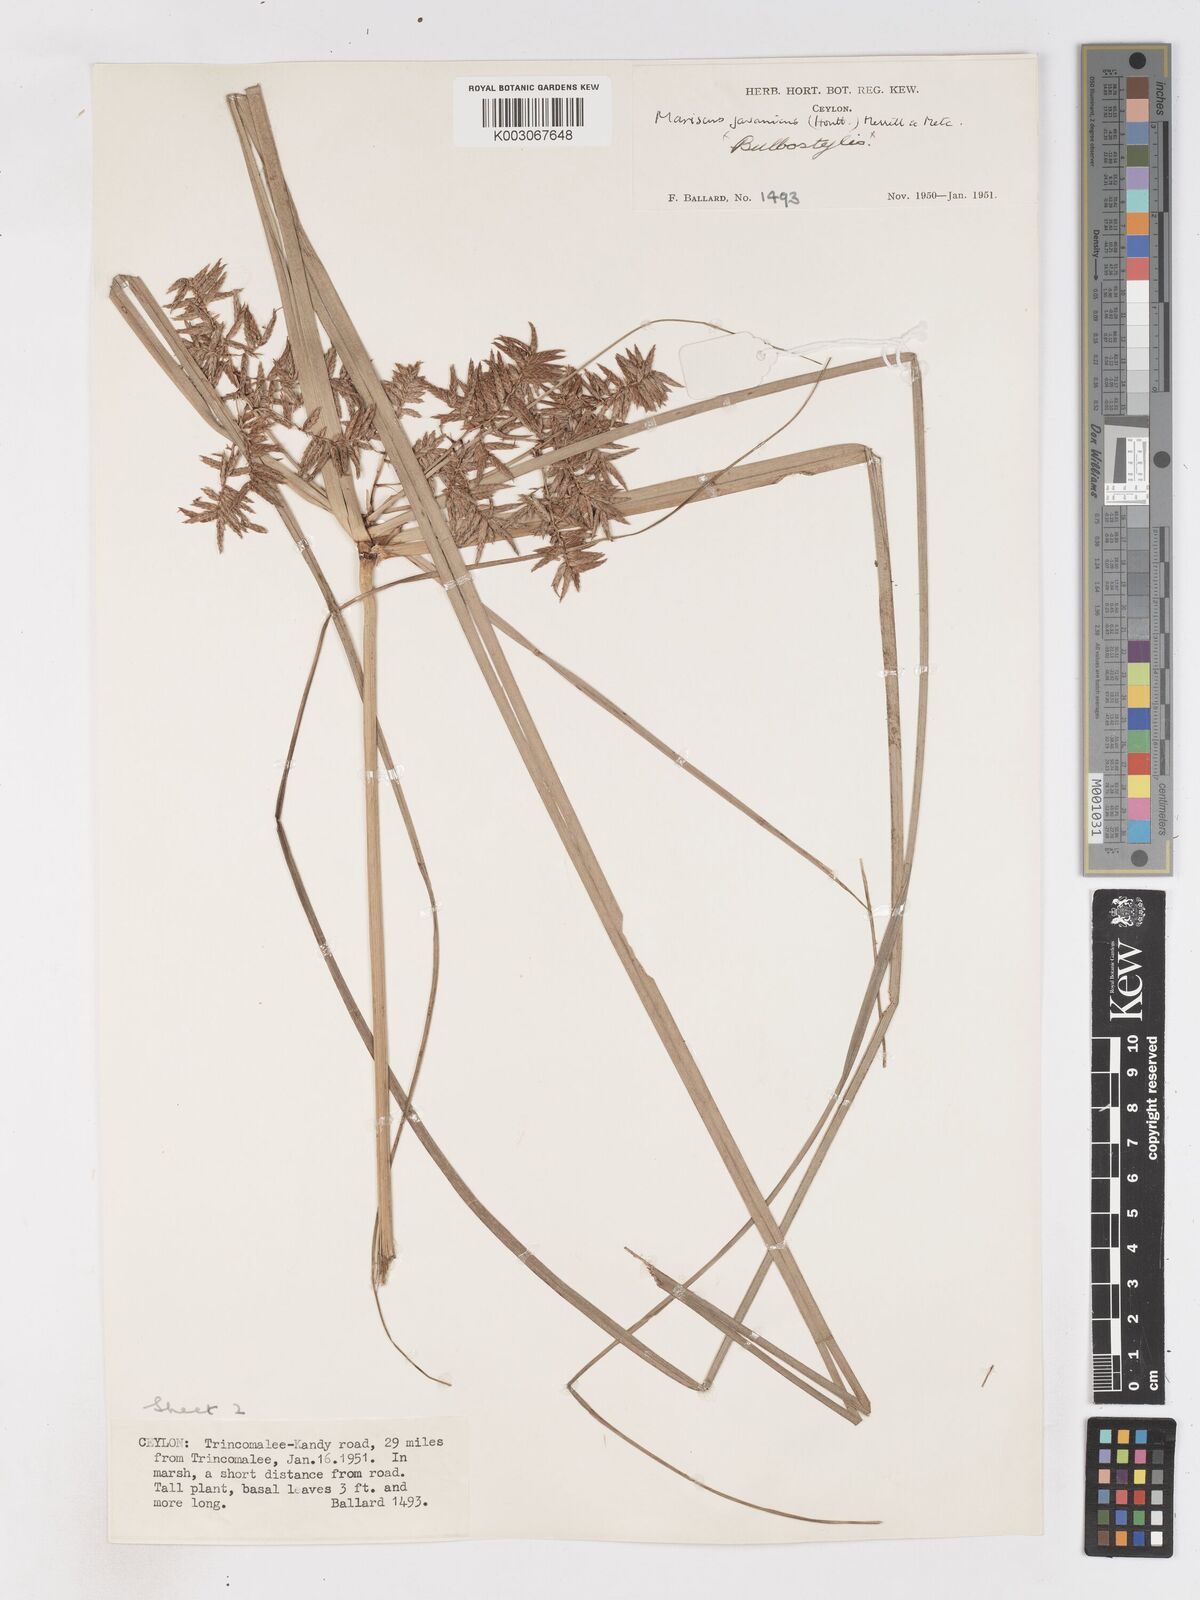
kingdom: Plantae
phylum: Tracheophyta
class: Liliopsida
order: Poales
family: Cyperaceae
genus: Cyperus
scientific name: Cyperus javanicus
